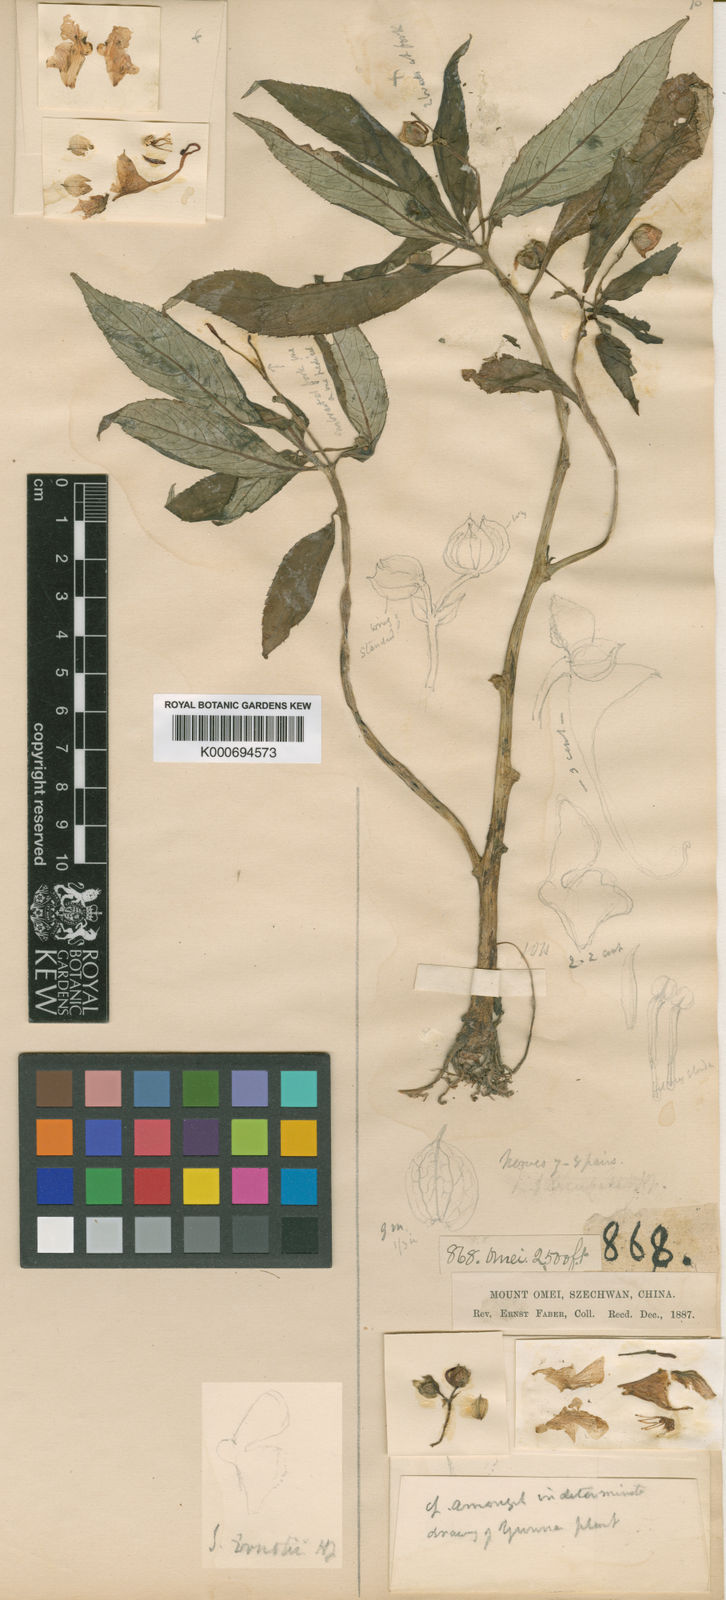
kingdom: Plantae
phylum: Tracheophyta
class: Magnoliopsida
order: Ericales
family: Balsaminaceae
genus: Impatiens
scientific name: Impatiens ernstii
